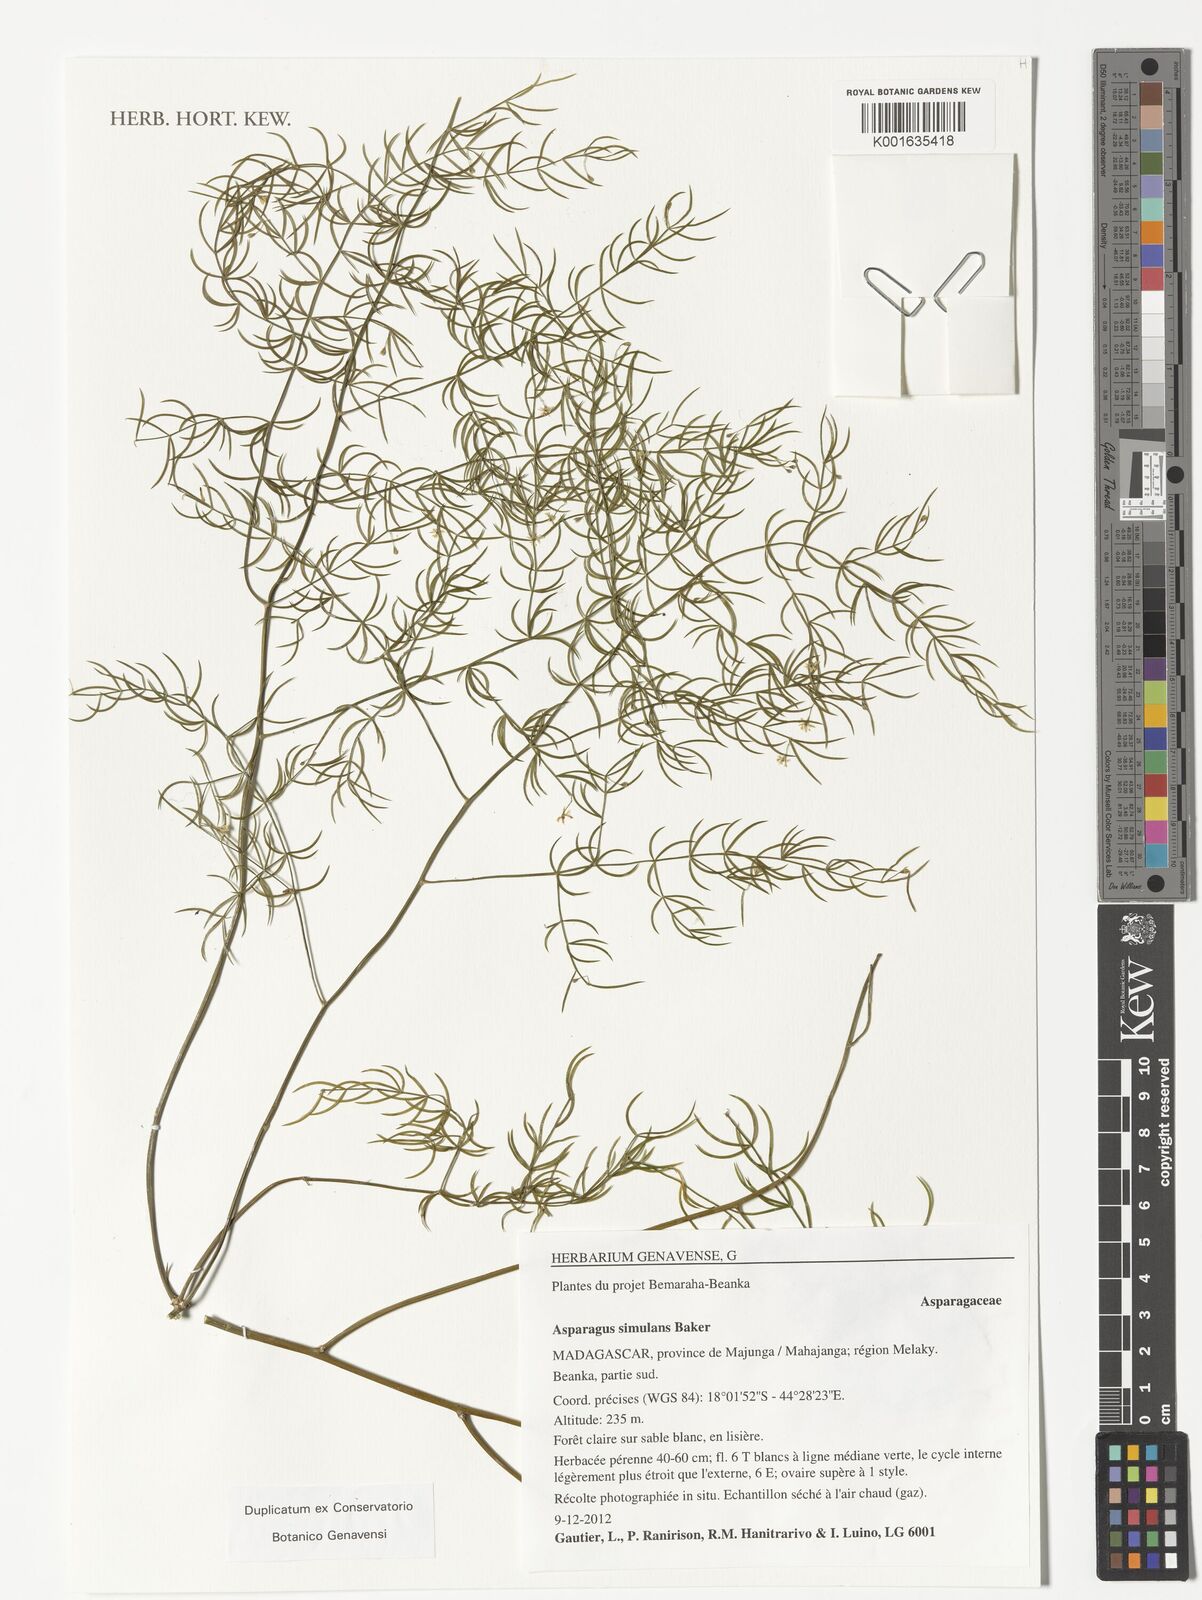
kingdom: Plantae
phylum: Tracheophyta
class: Liliopsida
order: Asparagales
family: Asparagaceae
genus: Asparagus
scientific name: Asparagus simulans
